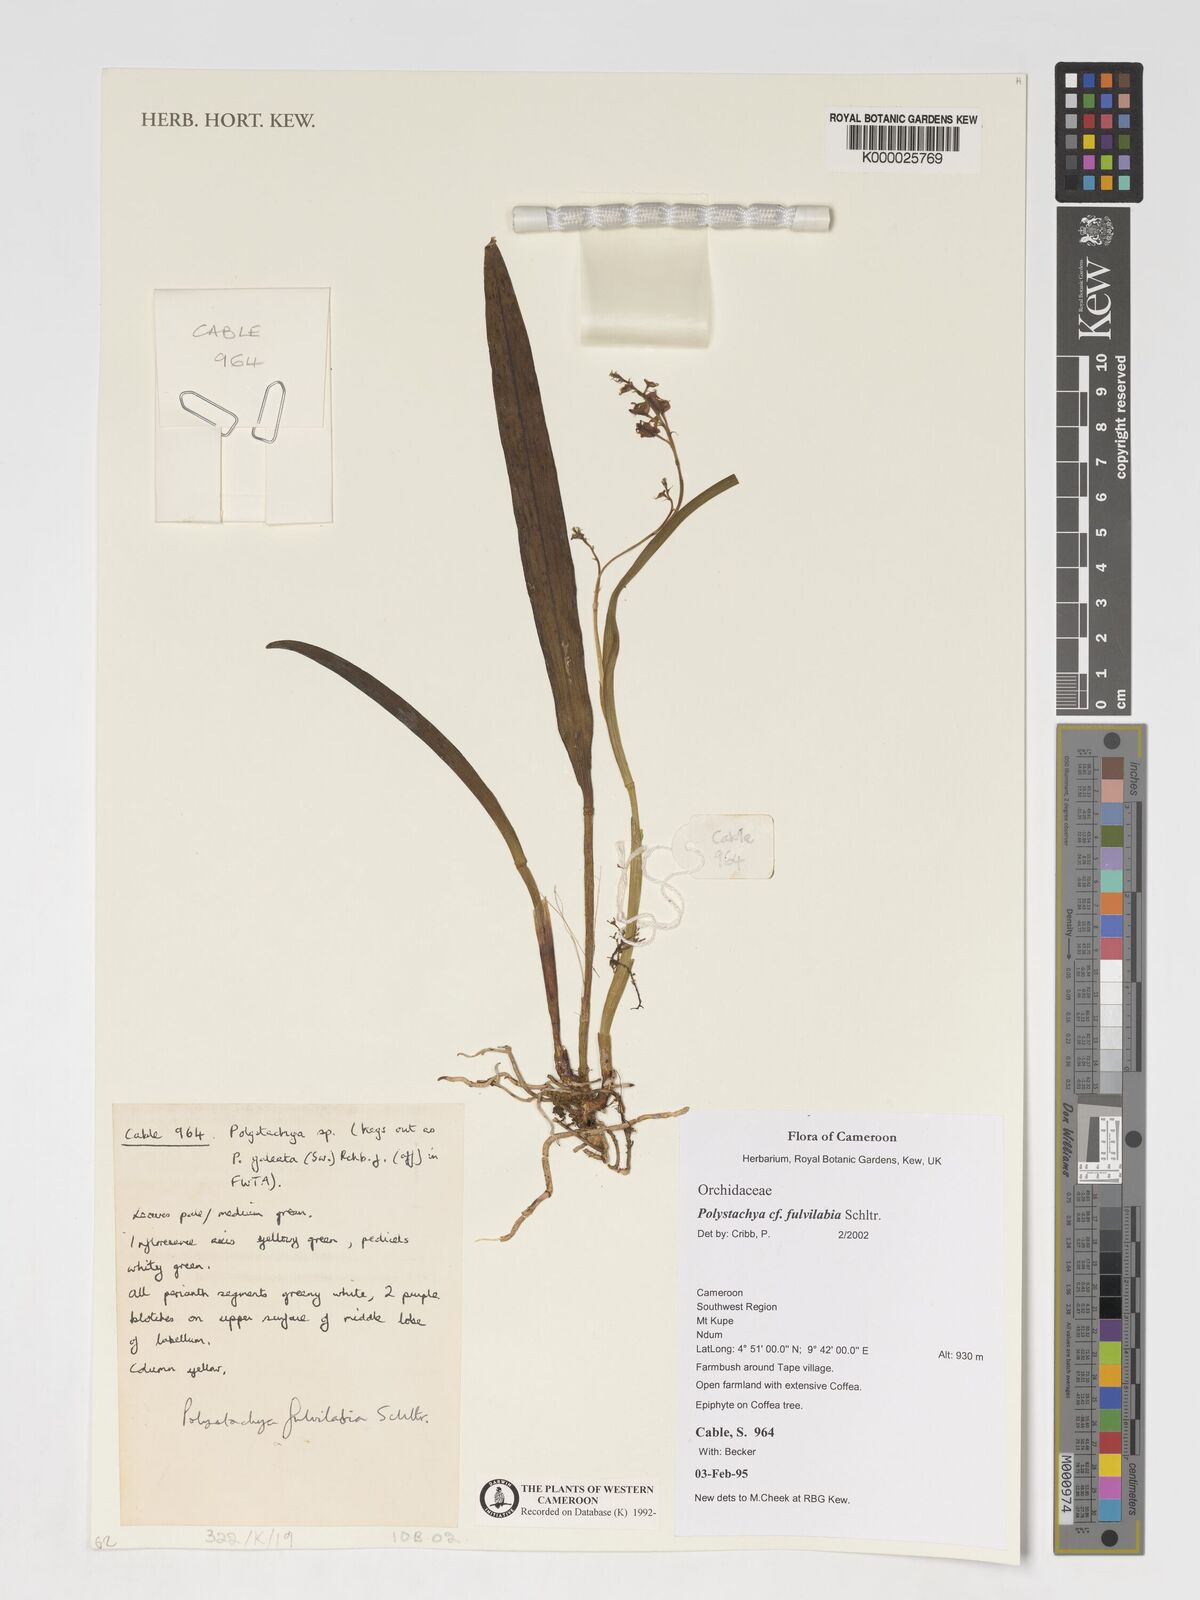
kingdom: Plantae
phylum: Tracheophyta
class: Liliopsida
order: Asparagales
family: Orchidaceae
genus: Polystachya
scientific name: Polystachya fulvilabia
